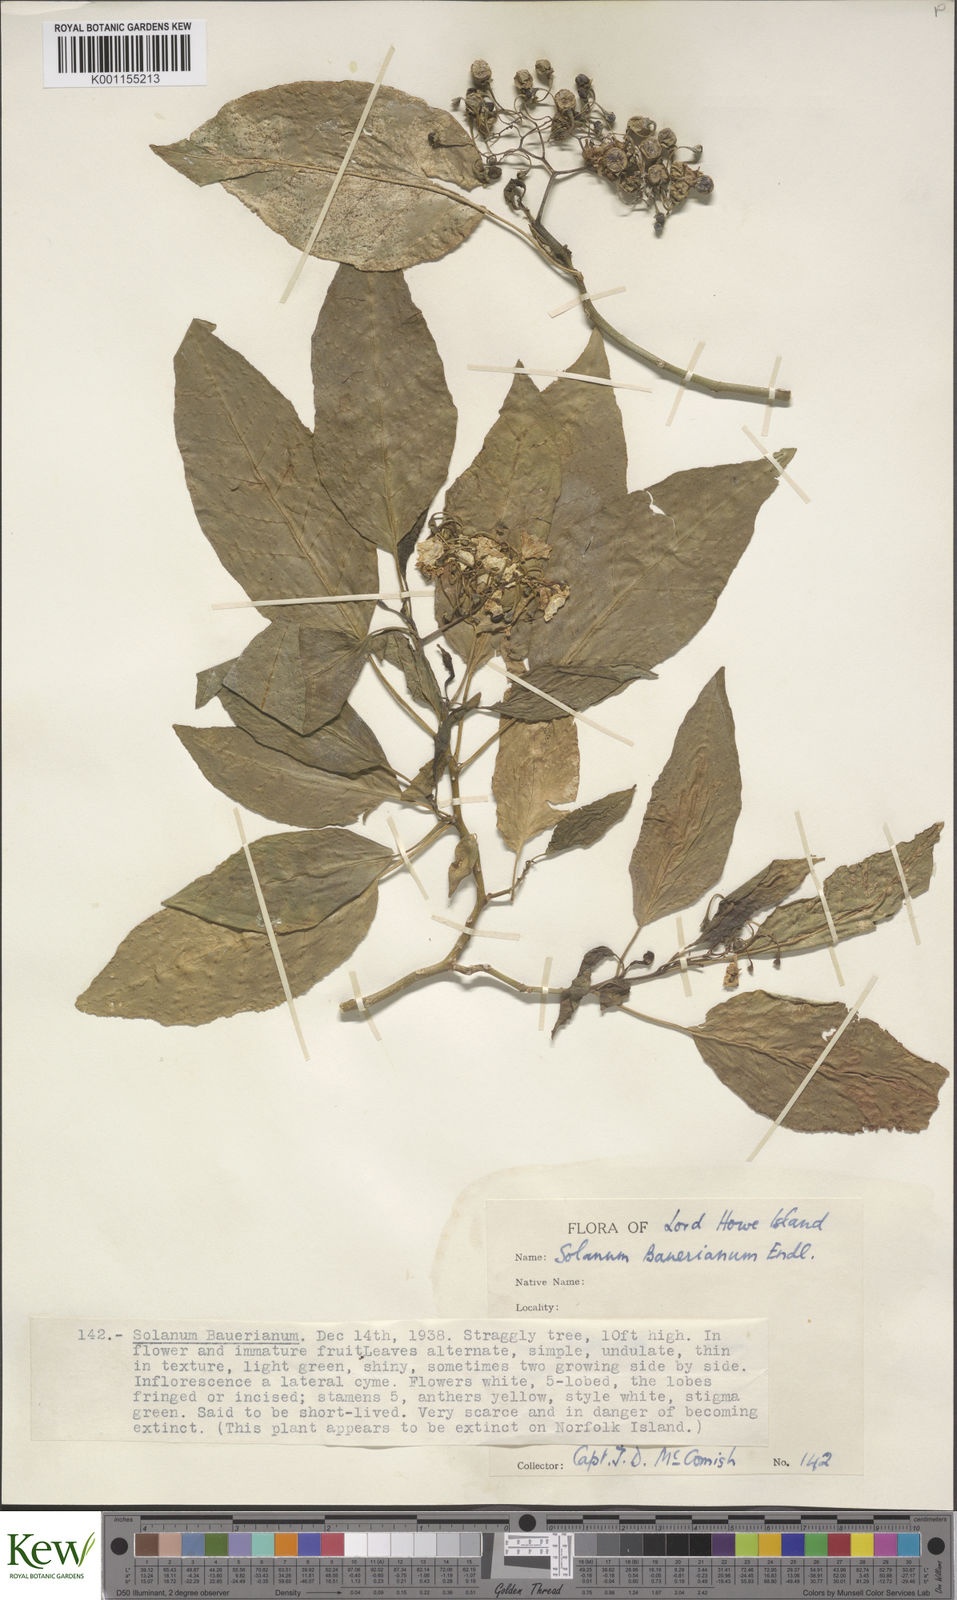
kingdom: Plantae
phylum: Tracheophyta
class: Magnoliopsida
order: Solanales
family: Solanaceae
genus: Solanum
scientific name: Solanum bauerianum
